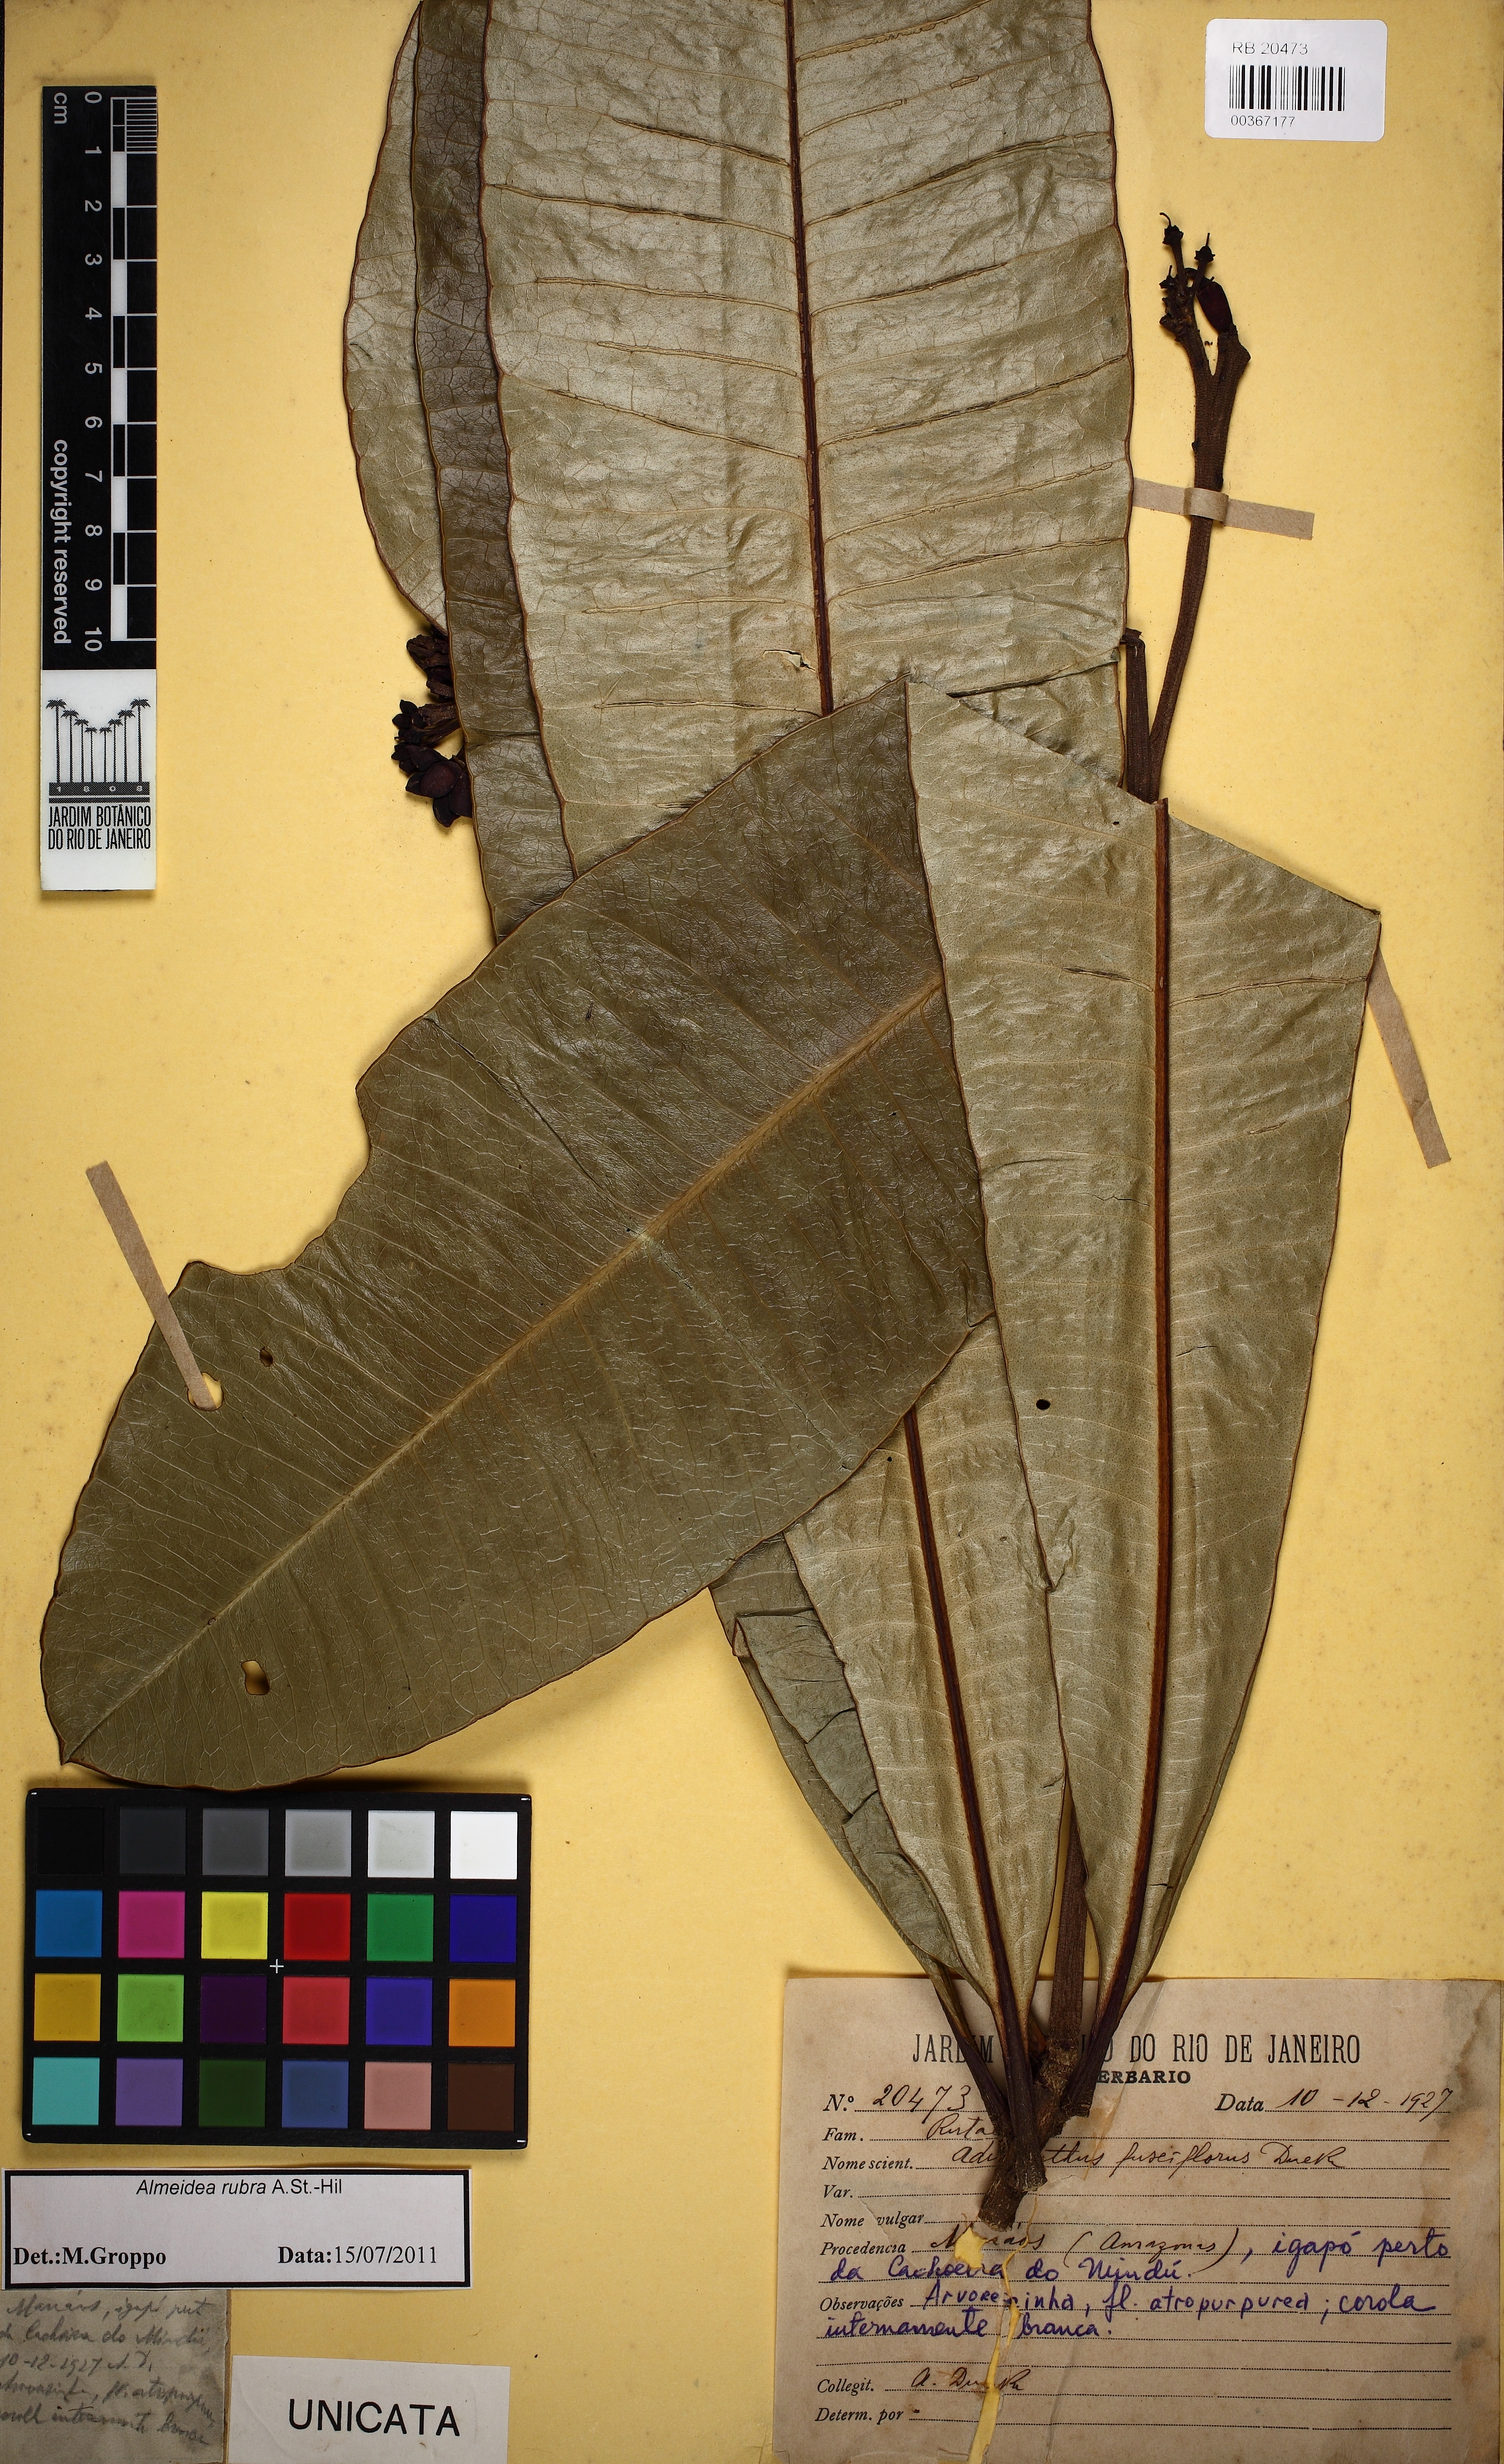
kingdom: Plantae
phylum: Tracheophyta
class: Magnoliopsida
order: Sapindales
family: Rutaceae
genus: Adiscanthus
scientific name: Adiscanthus fusciflorus
